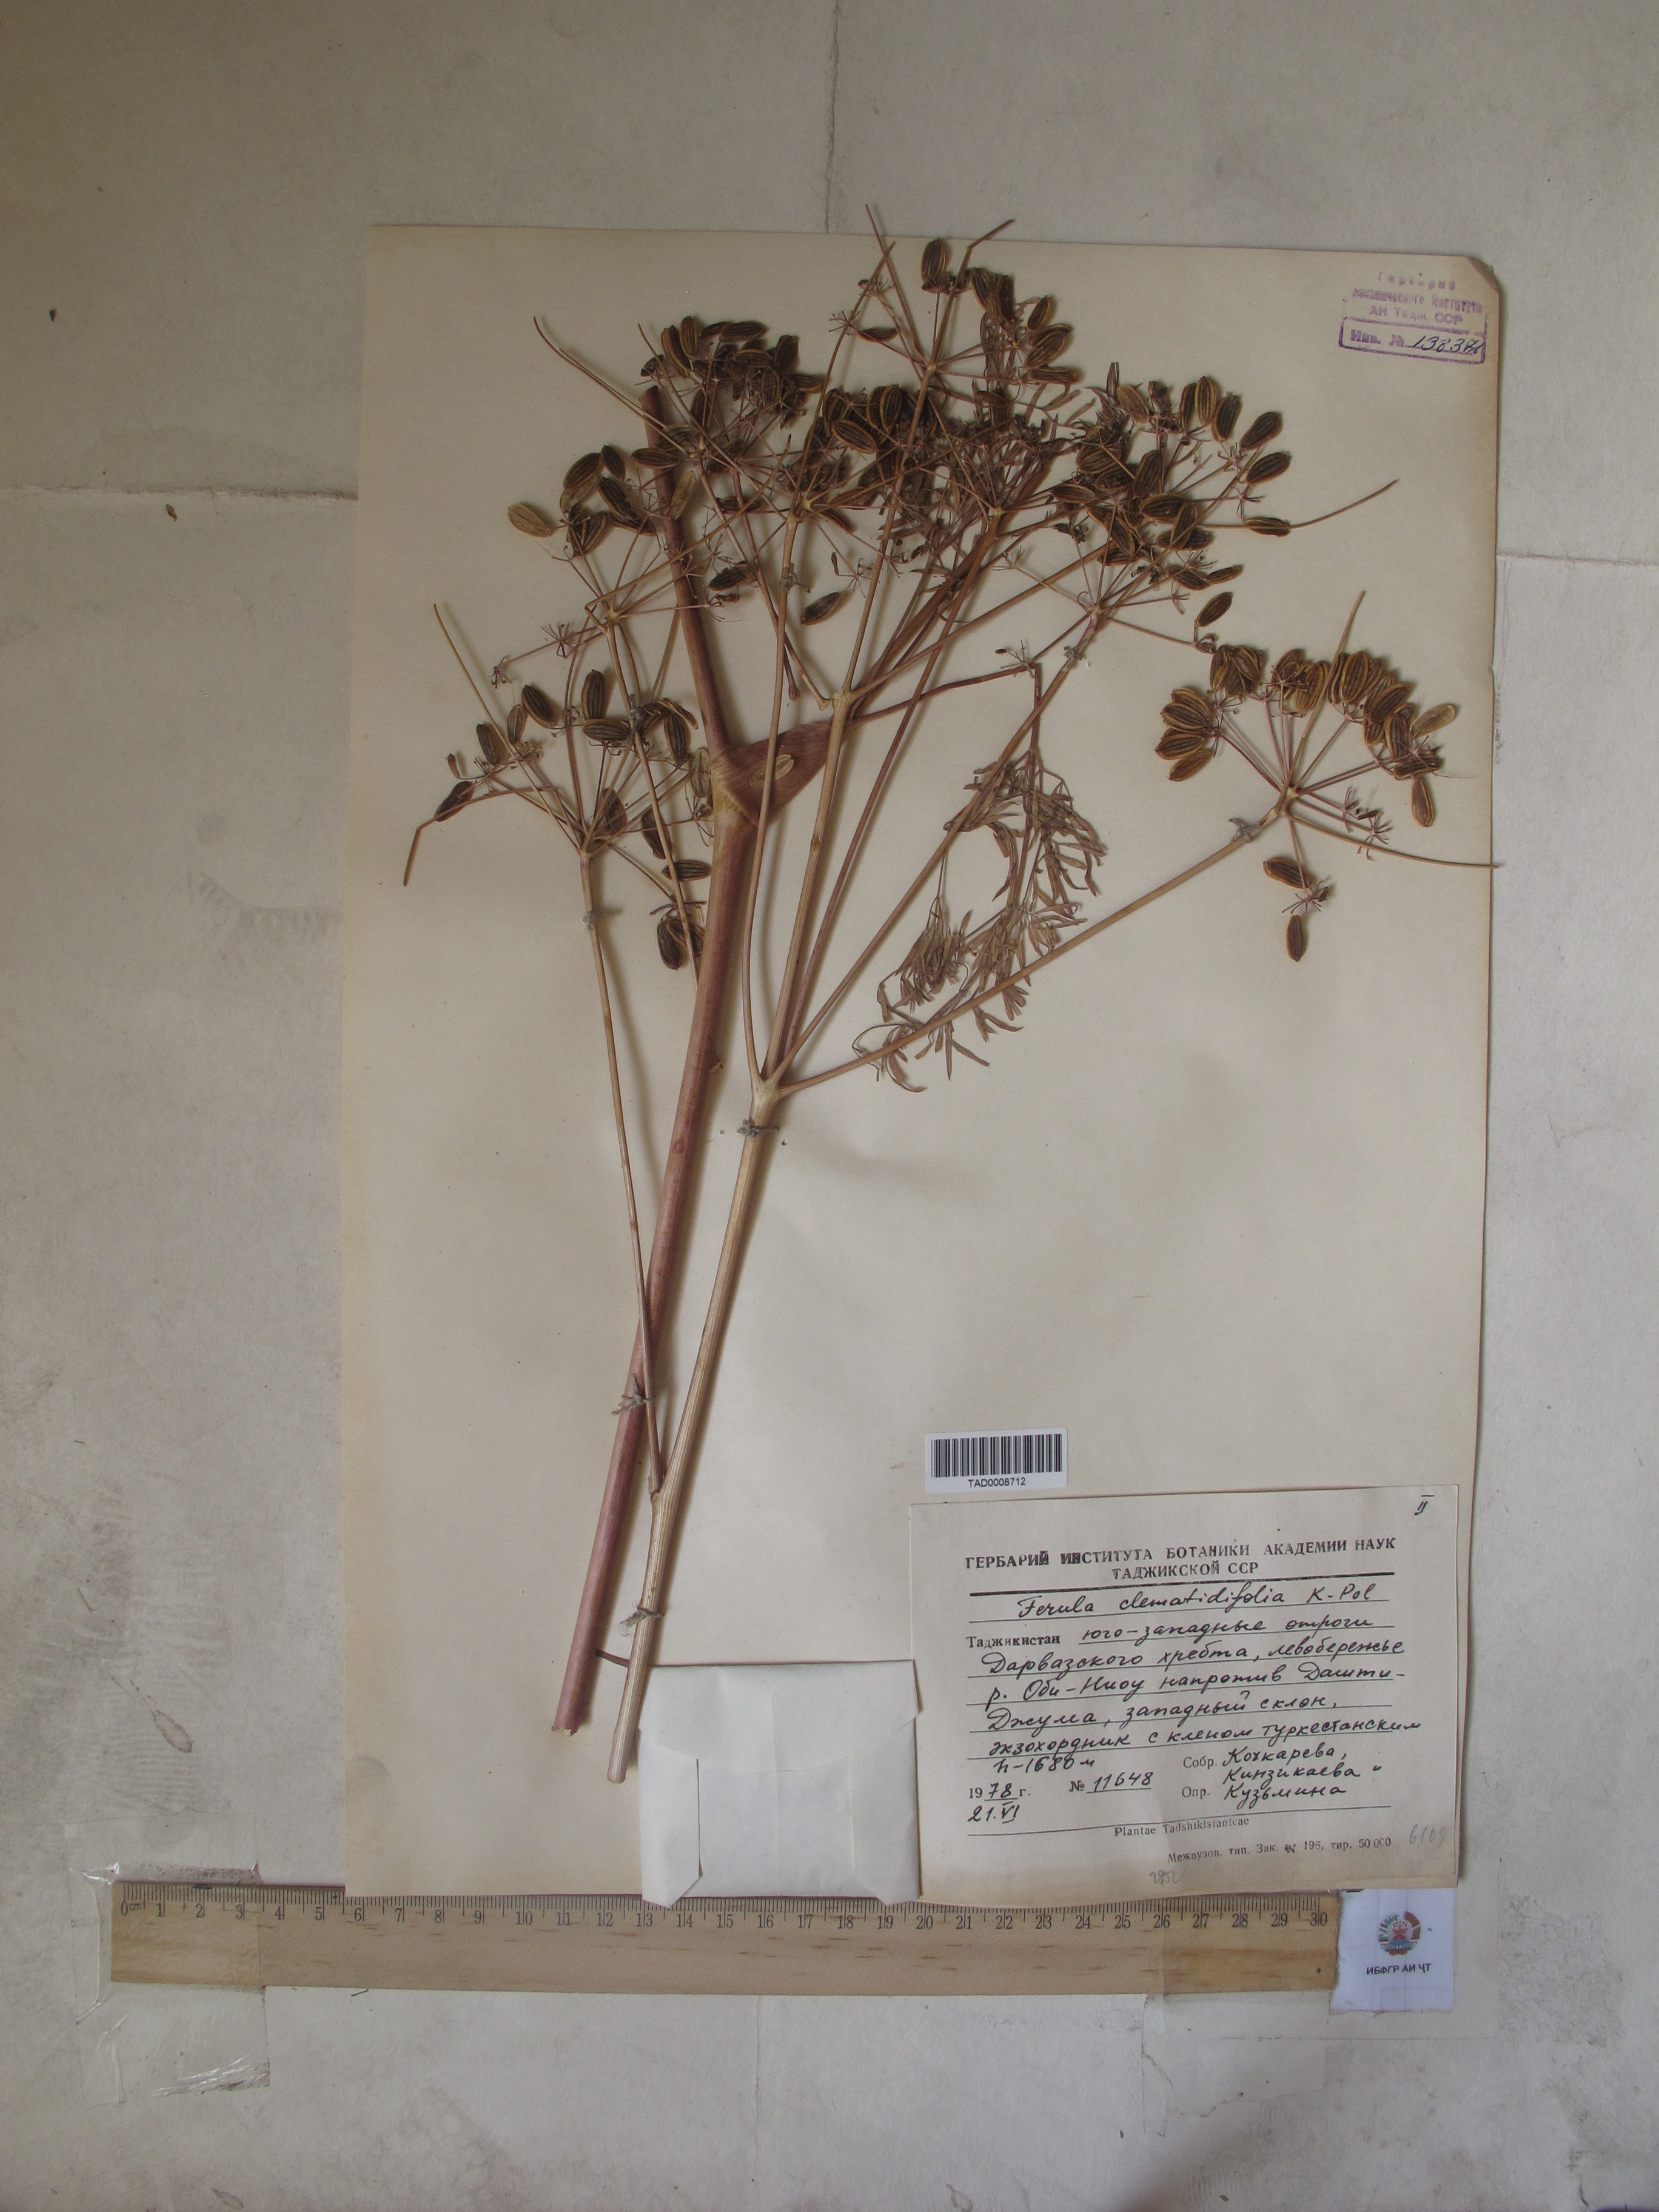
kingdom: Plantae
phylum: Tracheophyta
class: Magnoliopsida
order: Apiales
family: Apiaceae
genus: Ferula
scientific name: Ferula clematidifolia
